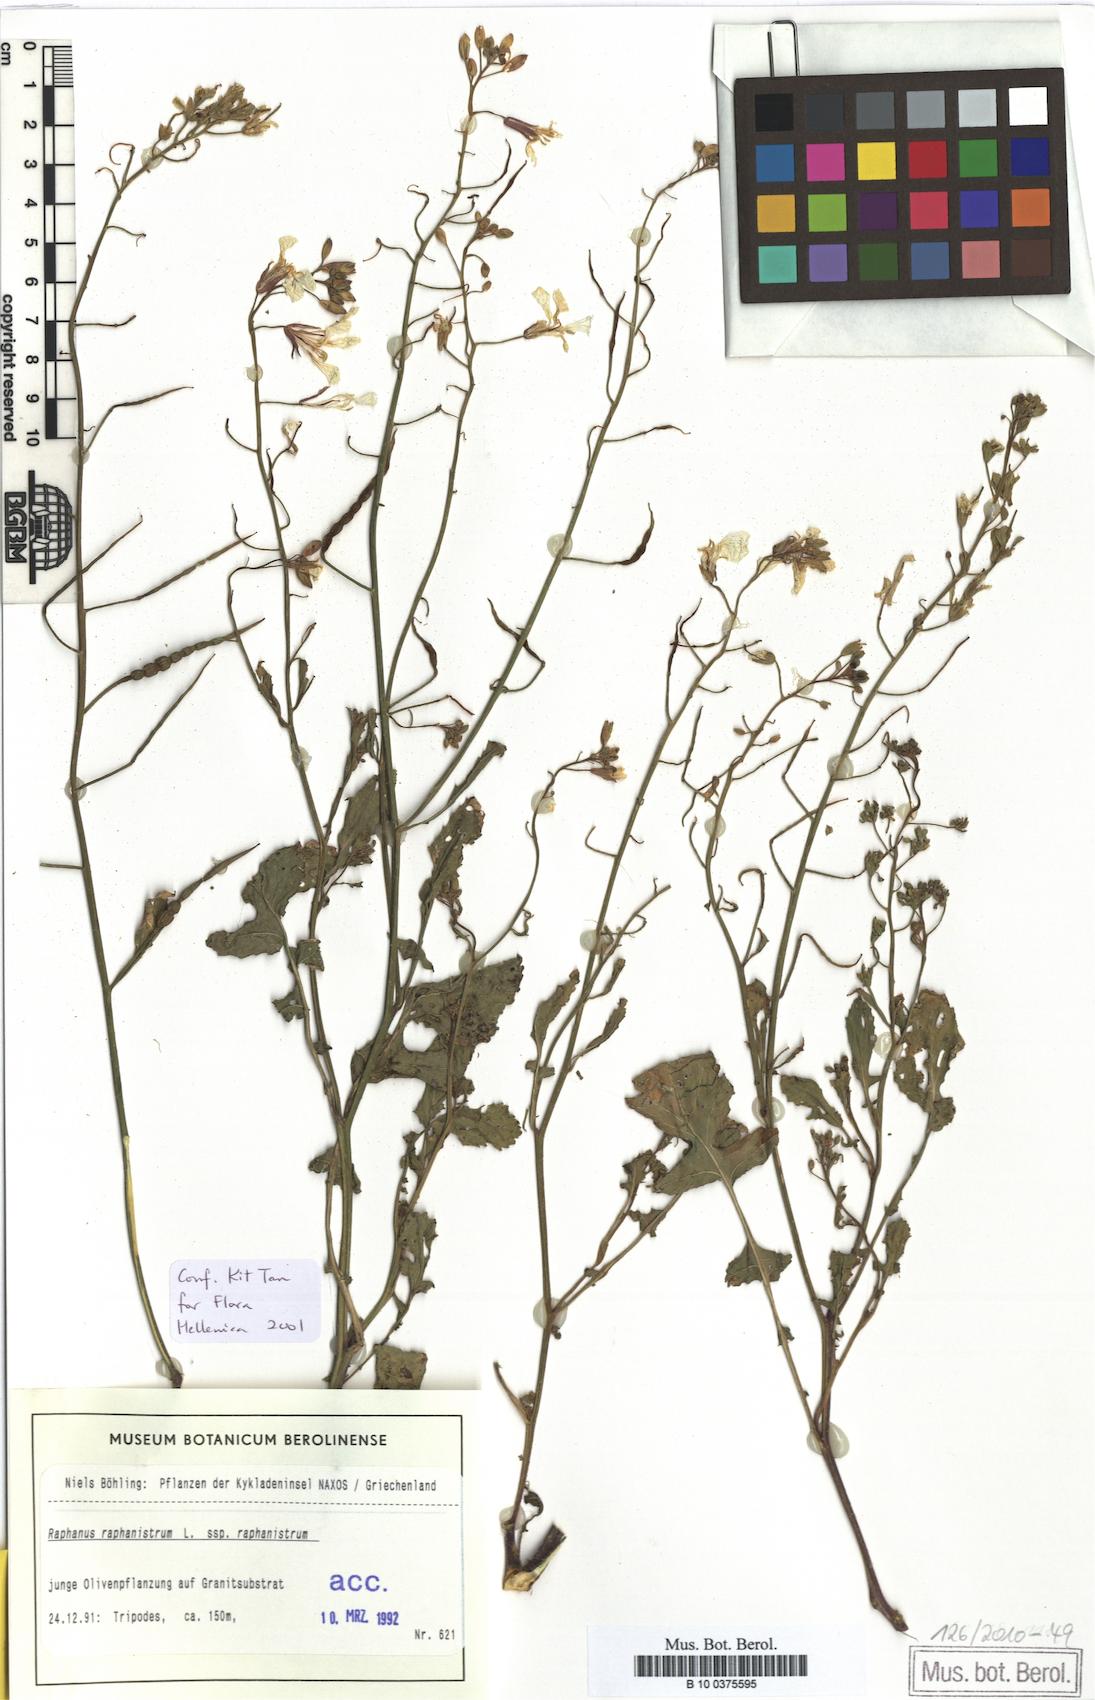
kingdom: Plantae
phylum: Tracheophyta
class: Magnoliopsida
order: Brassicales
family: Brassicaceae
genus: Raphanus
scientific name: Raphanus raphanistrum
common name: Wild radish
